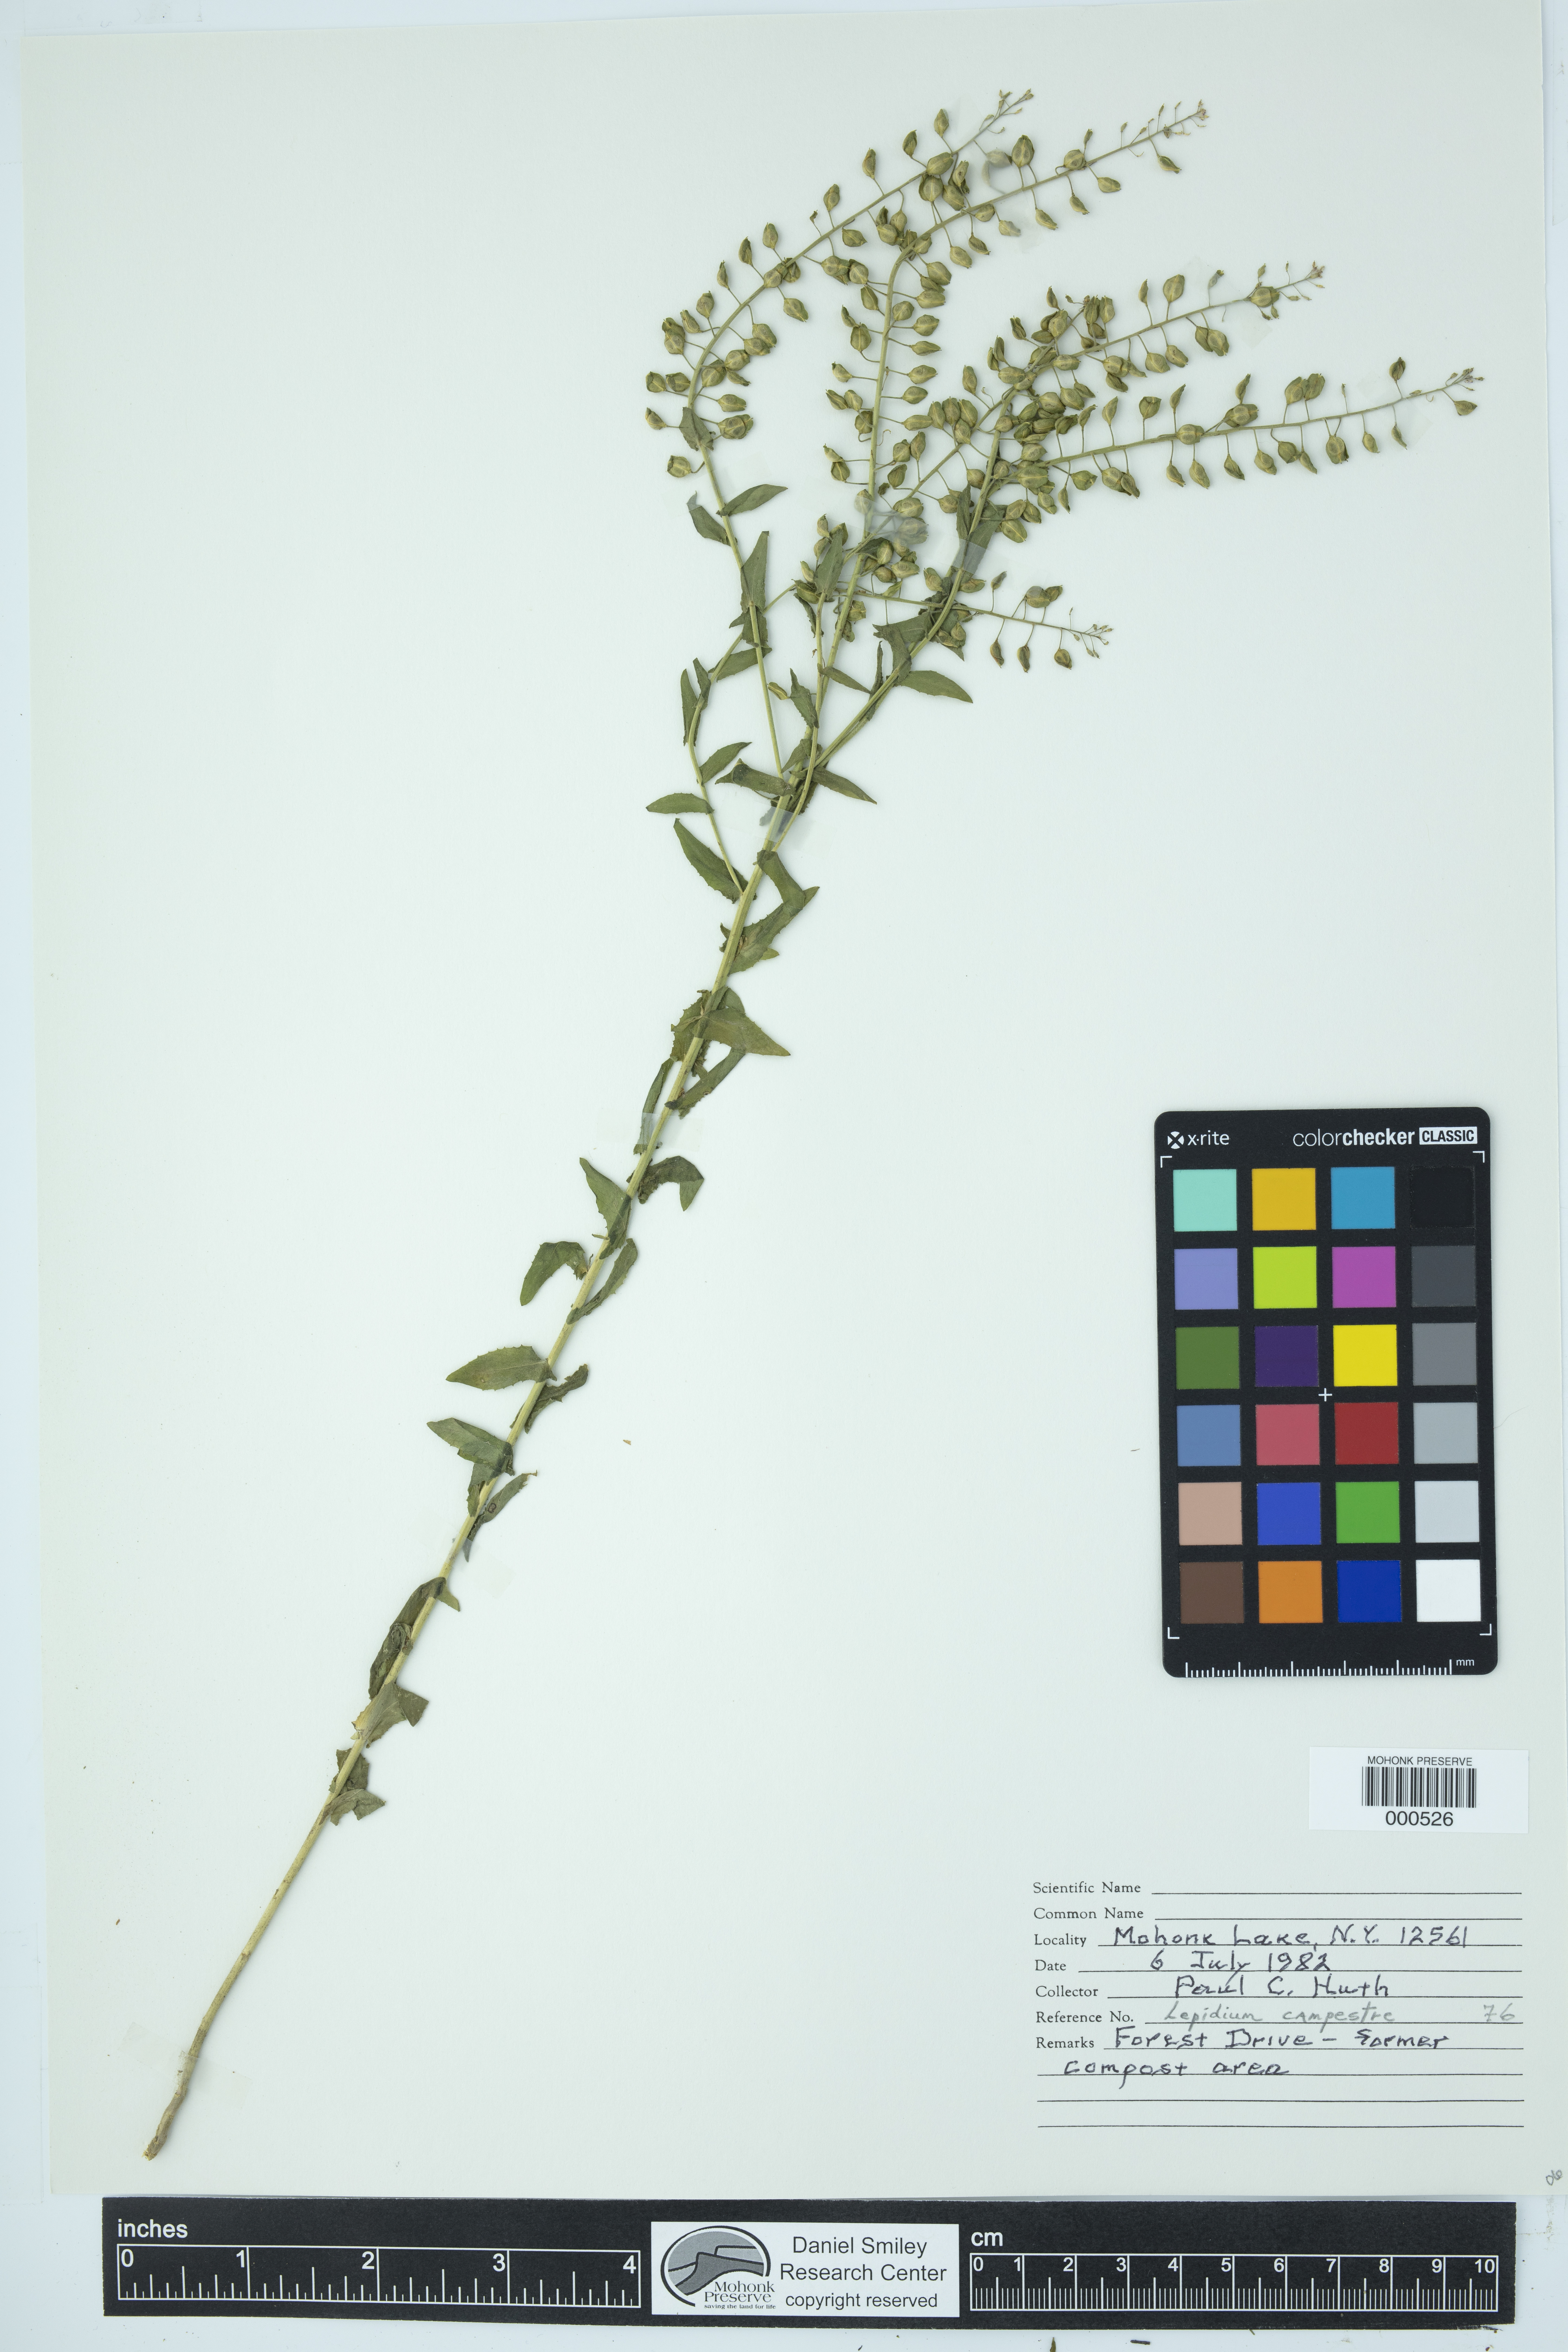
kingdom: Plantae
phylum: Tracheophyta
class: Magnoliopsida
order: Brassicales
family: Brassicaceae
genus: Lepidium
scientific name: Lepidium campestre
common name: Field pepperwort
